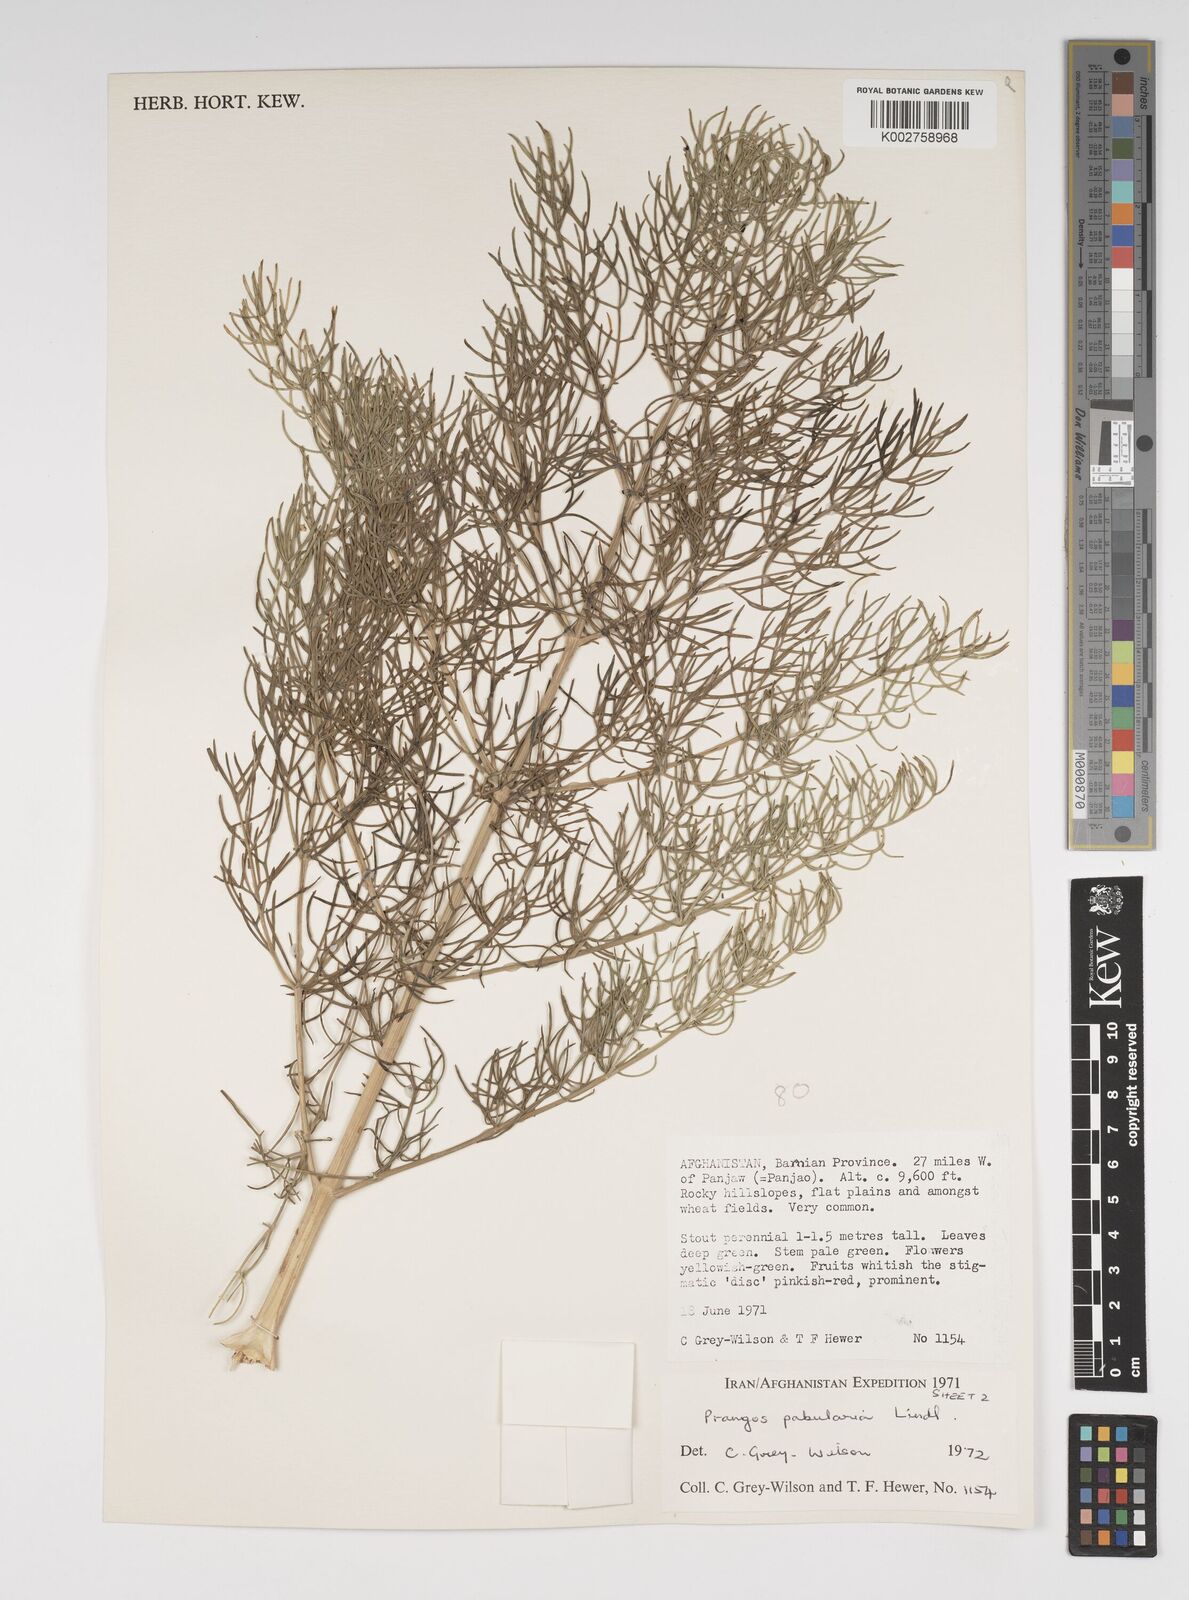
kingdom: Plantae
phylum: Tracheophyta
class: Magnoliopsida
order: Apiales
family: Apiaceae
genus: Prangos
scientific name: Prangos pabularia
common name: Yugan
